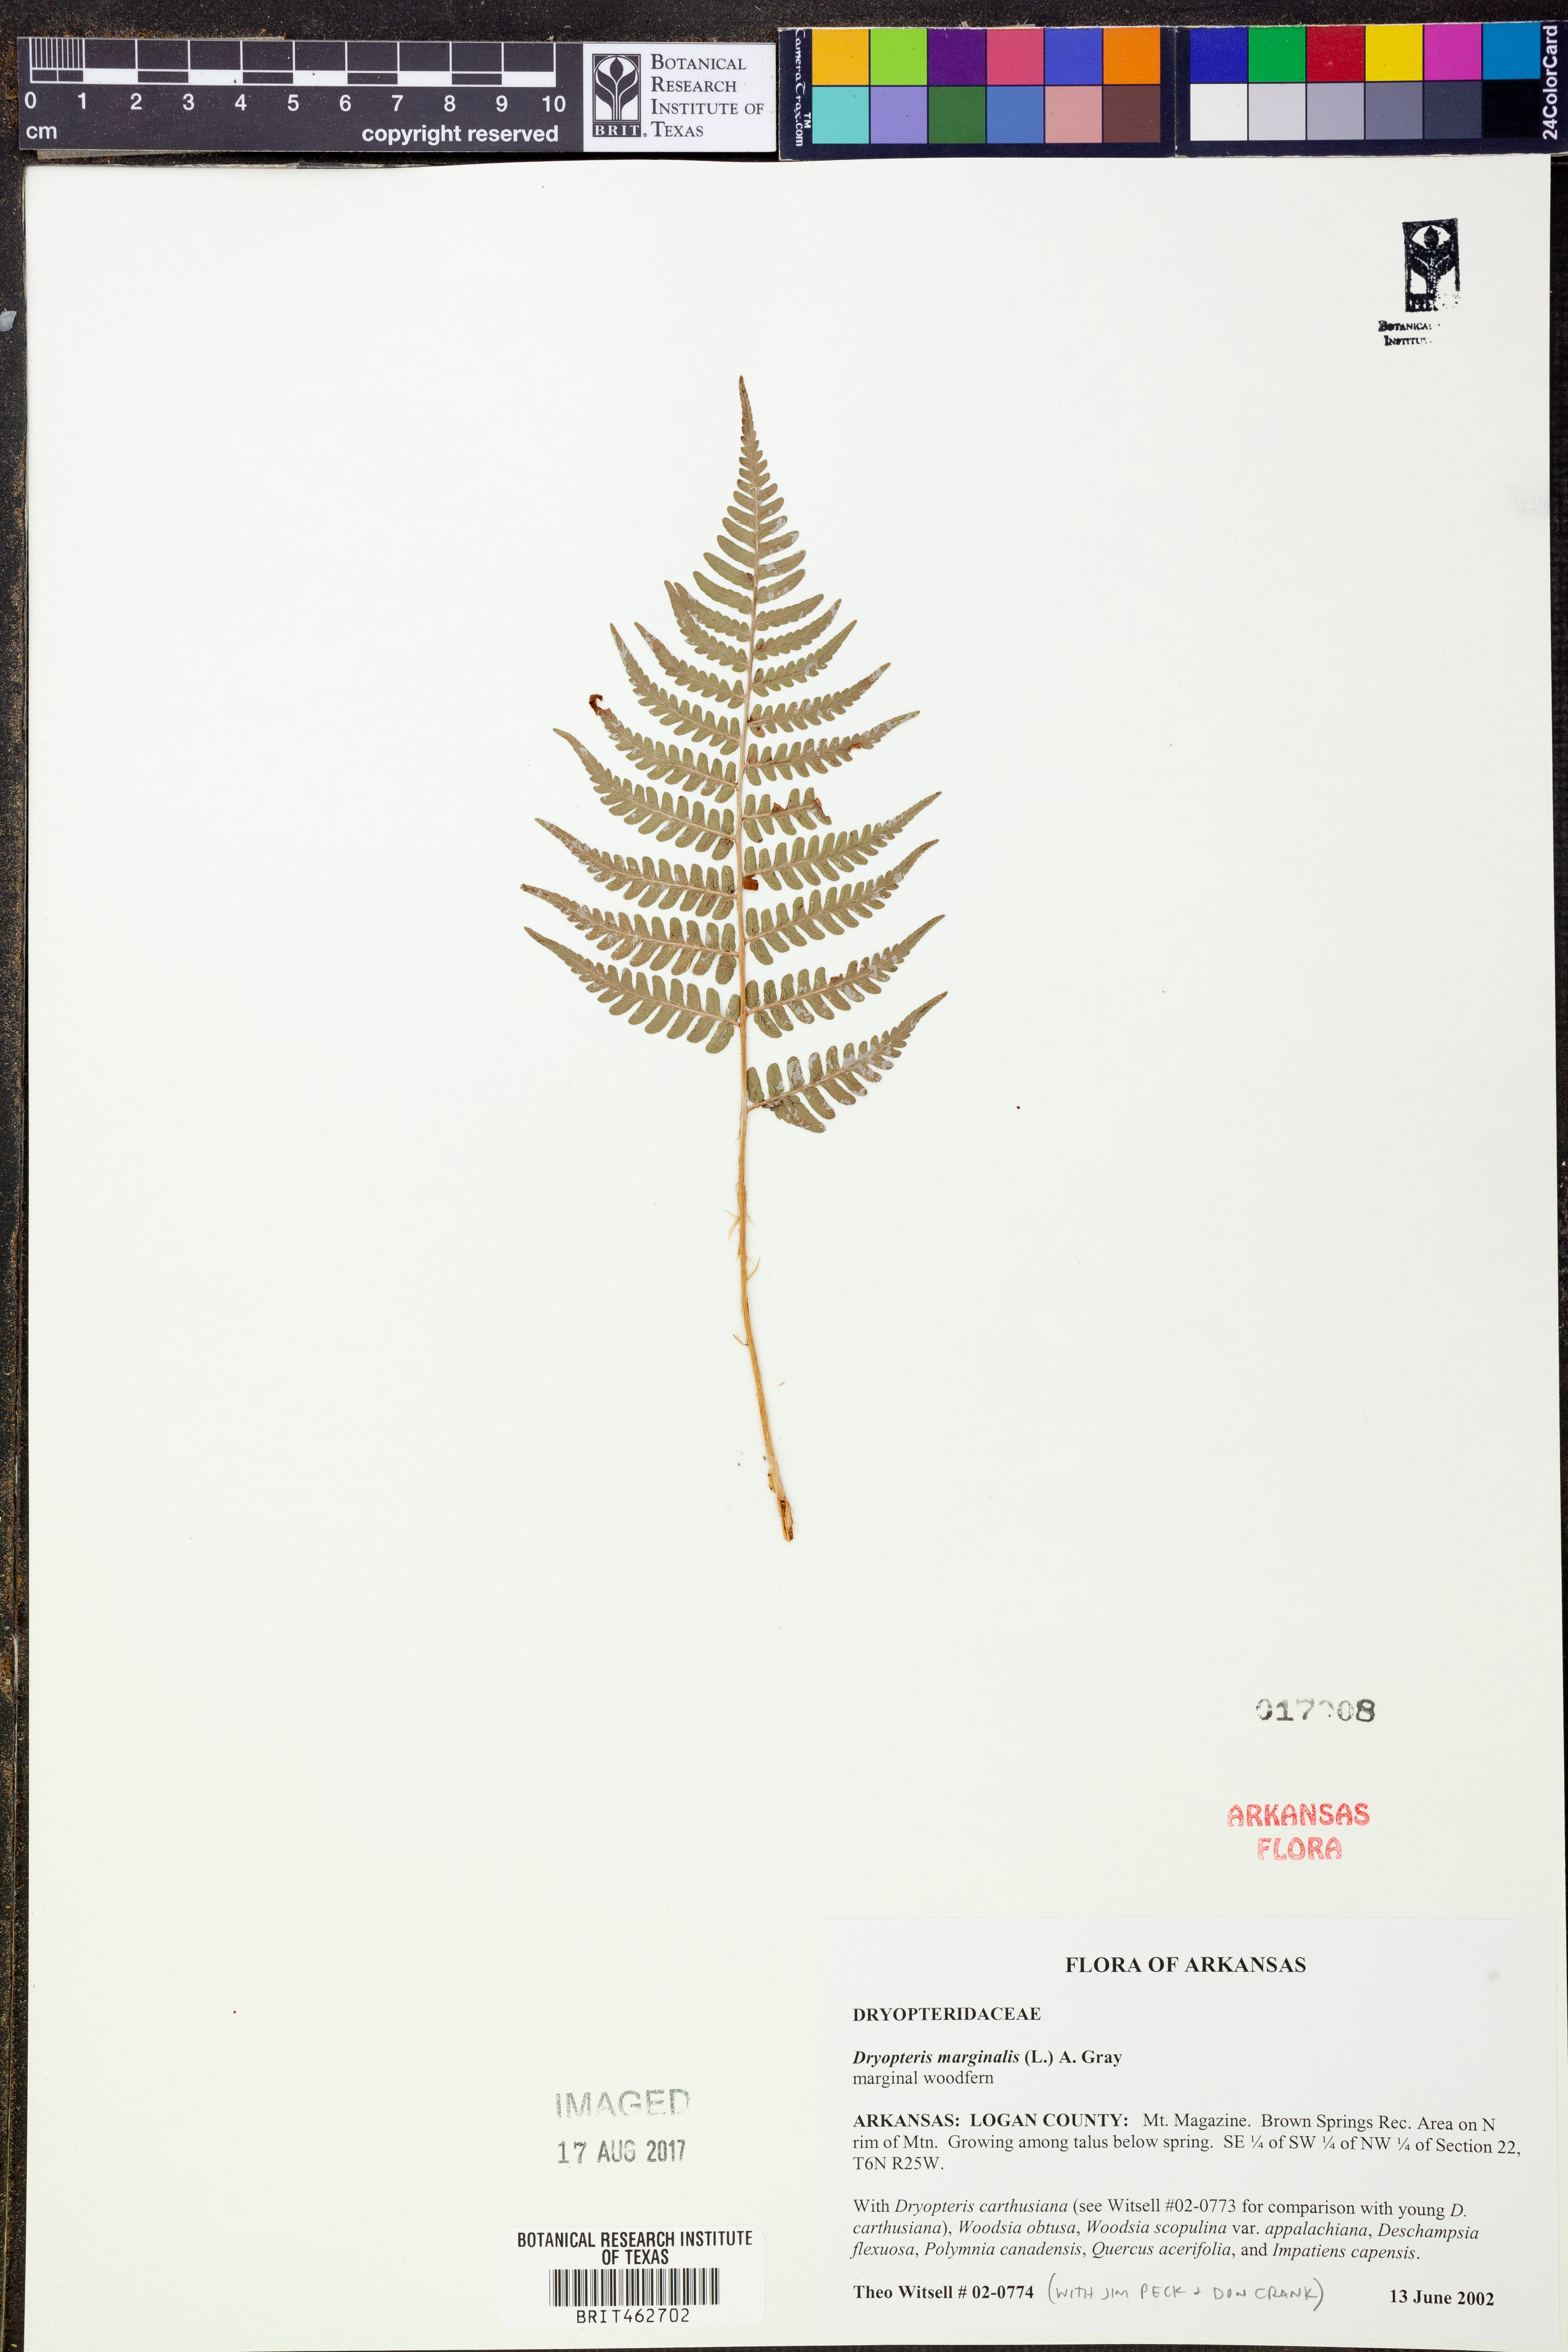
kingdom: Plantae
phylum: Tracheophyta
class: Polypodiopsida
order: Polypodiales
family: Dryopteridaceae
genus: Dryopteris
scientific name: Dryopteris marginalis
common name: Marginal wood fern
